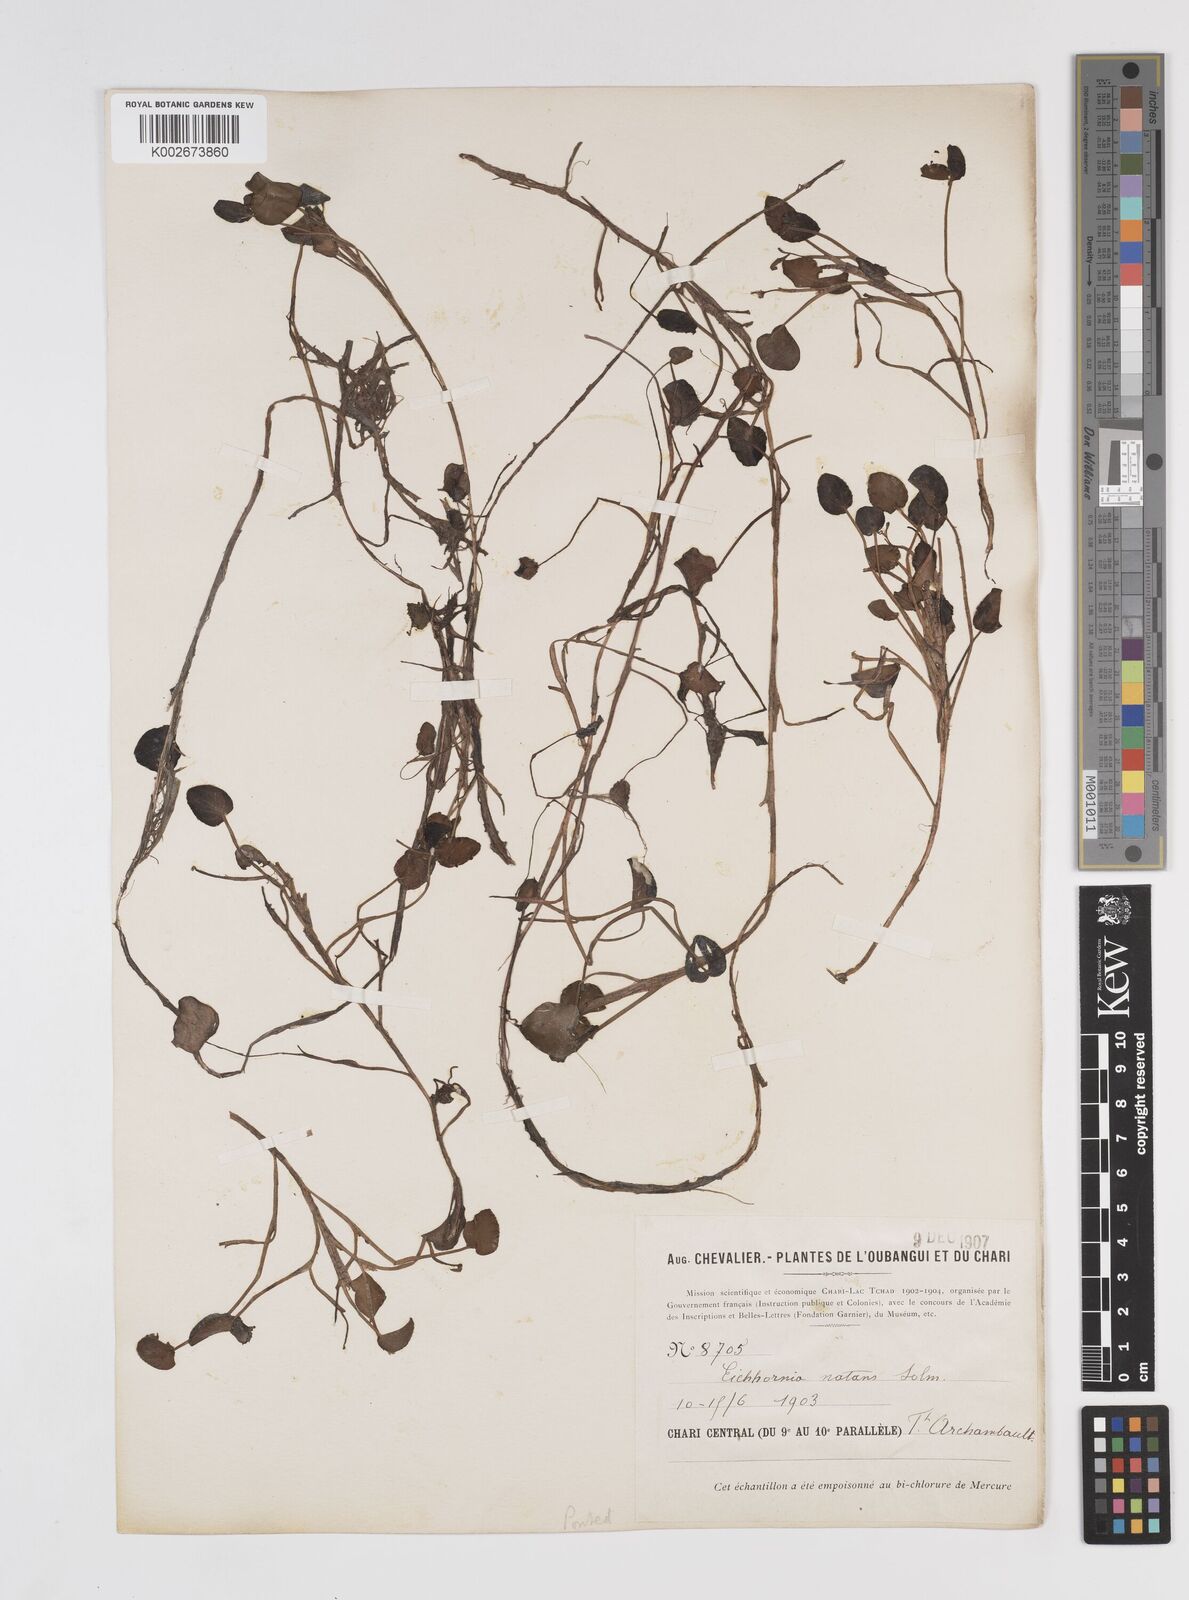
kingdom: Plantae
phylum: Tracheophyta
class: Liliopsida
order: Commelinales
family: Pontederiaceae
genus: Pontederia
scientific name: Pontederia natans
